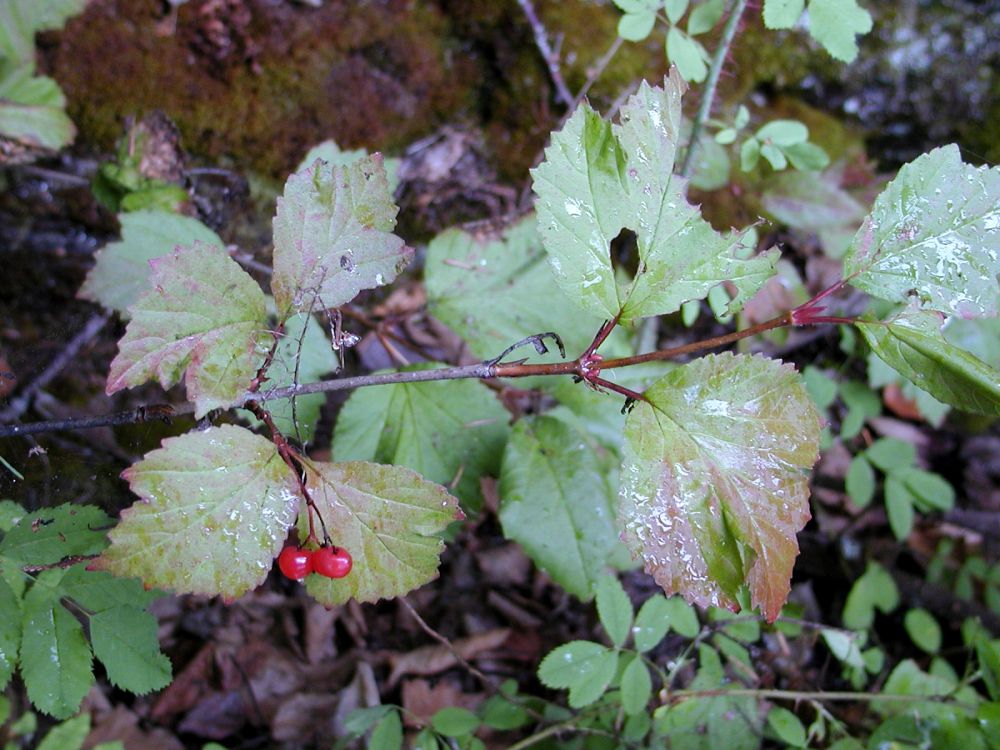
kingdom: Plantae
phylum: Tracheophyta
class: Magnoliopsida
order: Dipsacales
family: Viburnaceae
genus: Viburnum
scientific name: Viburnum edule
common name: Mooseberry
